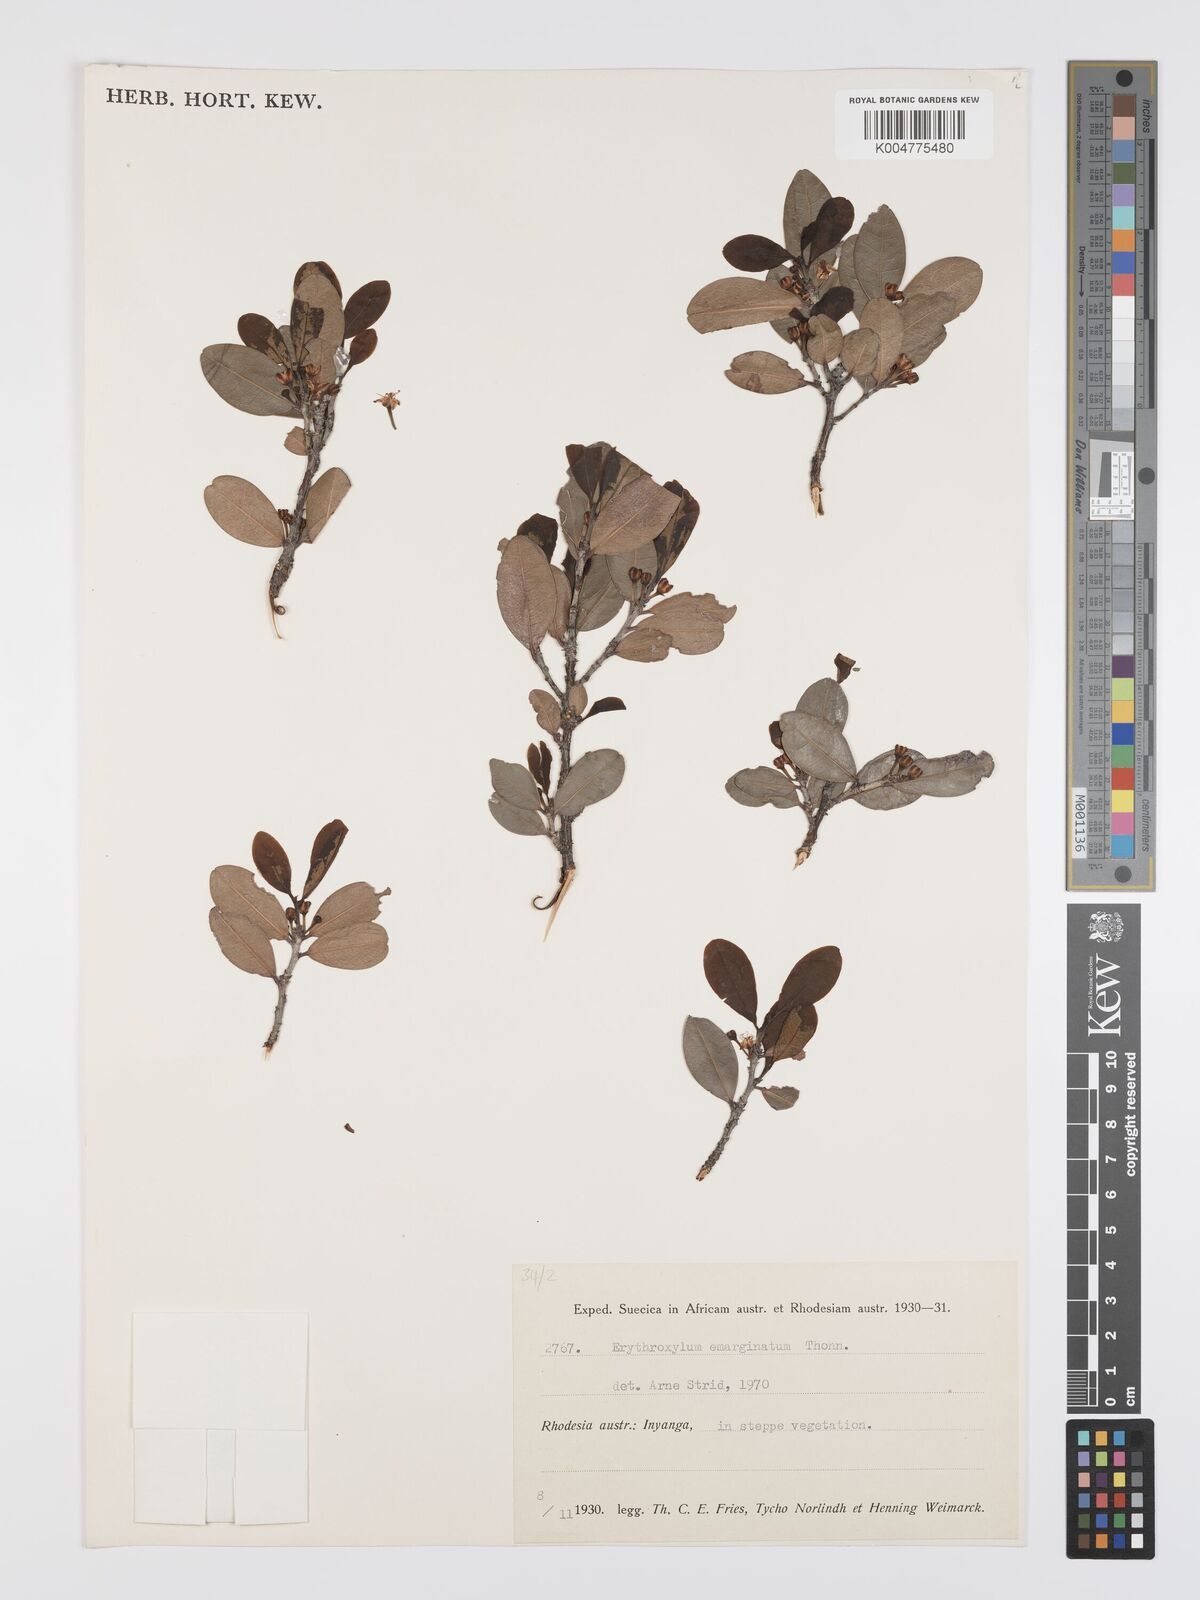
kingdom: Plantae
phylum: Tracheophyta
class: Magnoliopsida
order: Malpighiales
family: Erythroxylaceae
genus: Erythroxylum
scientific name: Erythroxylum emarginatum
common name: African coca-tree
